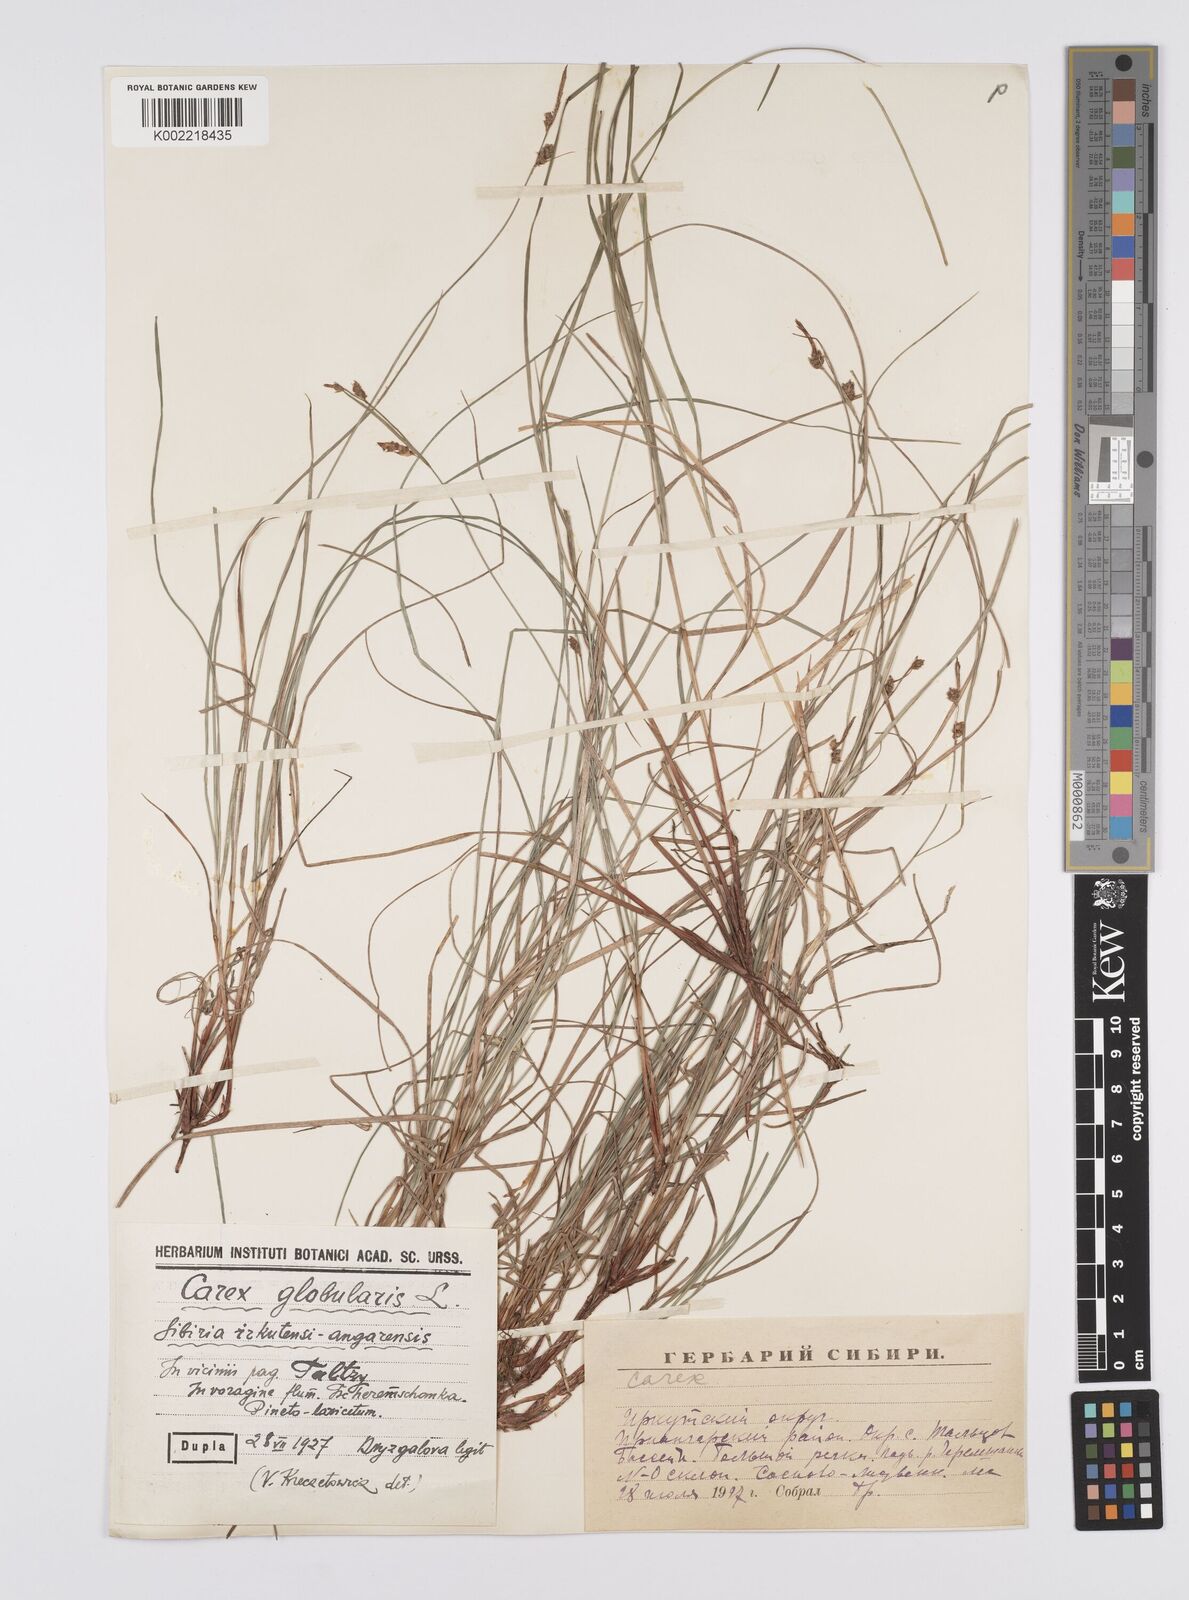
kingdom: Plantae
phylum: Tracheophyta
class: Liliopsida
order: Poales
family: Cyperaceae
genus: Carex
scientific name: Carex globularis
